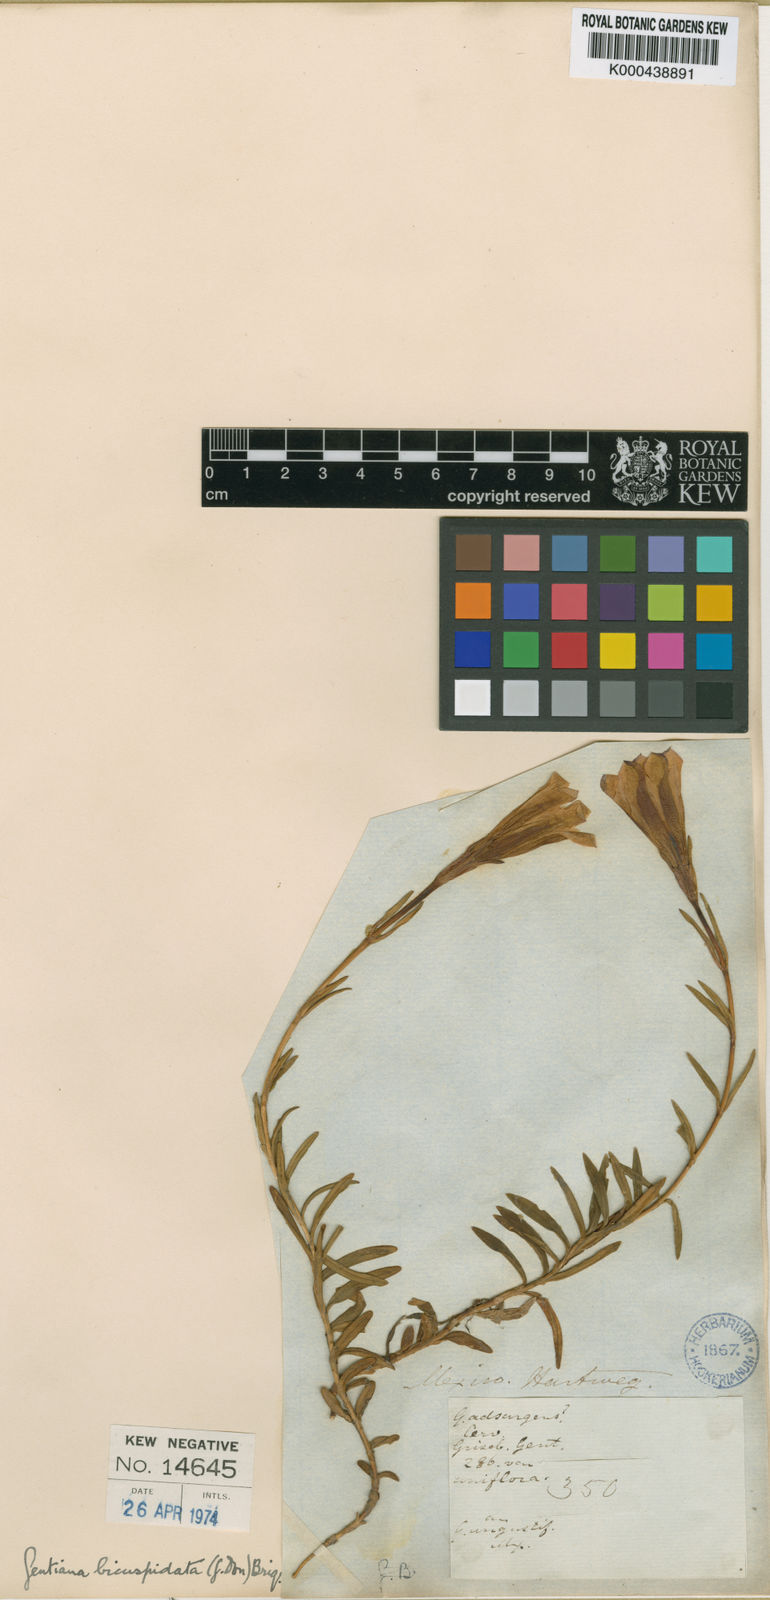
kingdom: Plantae
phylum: Tracheophyta
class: Magnoliopsida
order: Gentianales
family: Gentianaceae
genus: Gentiana
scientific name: Gentiana bicuspidata
